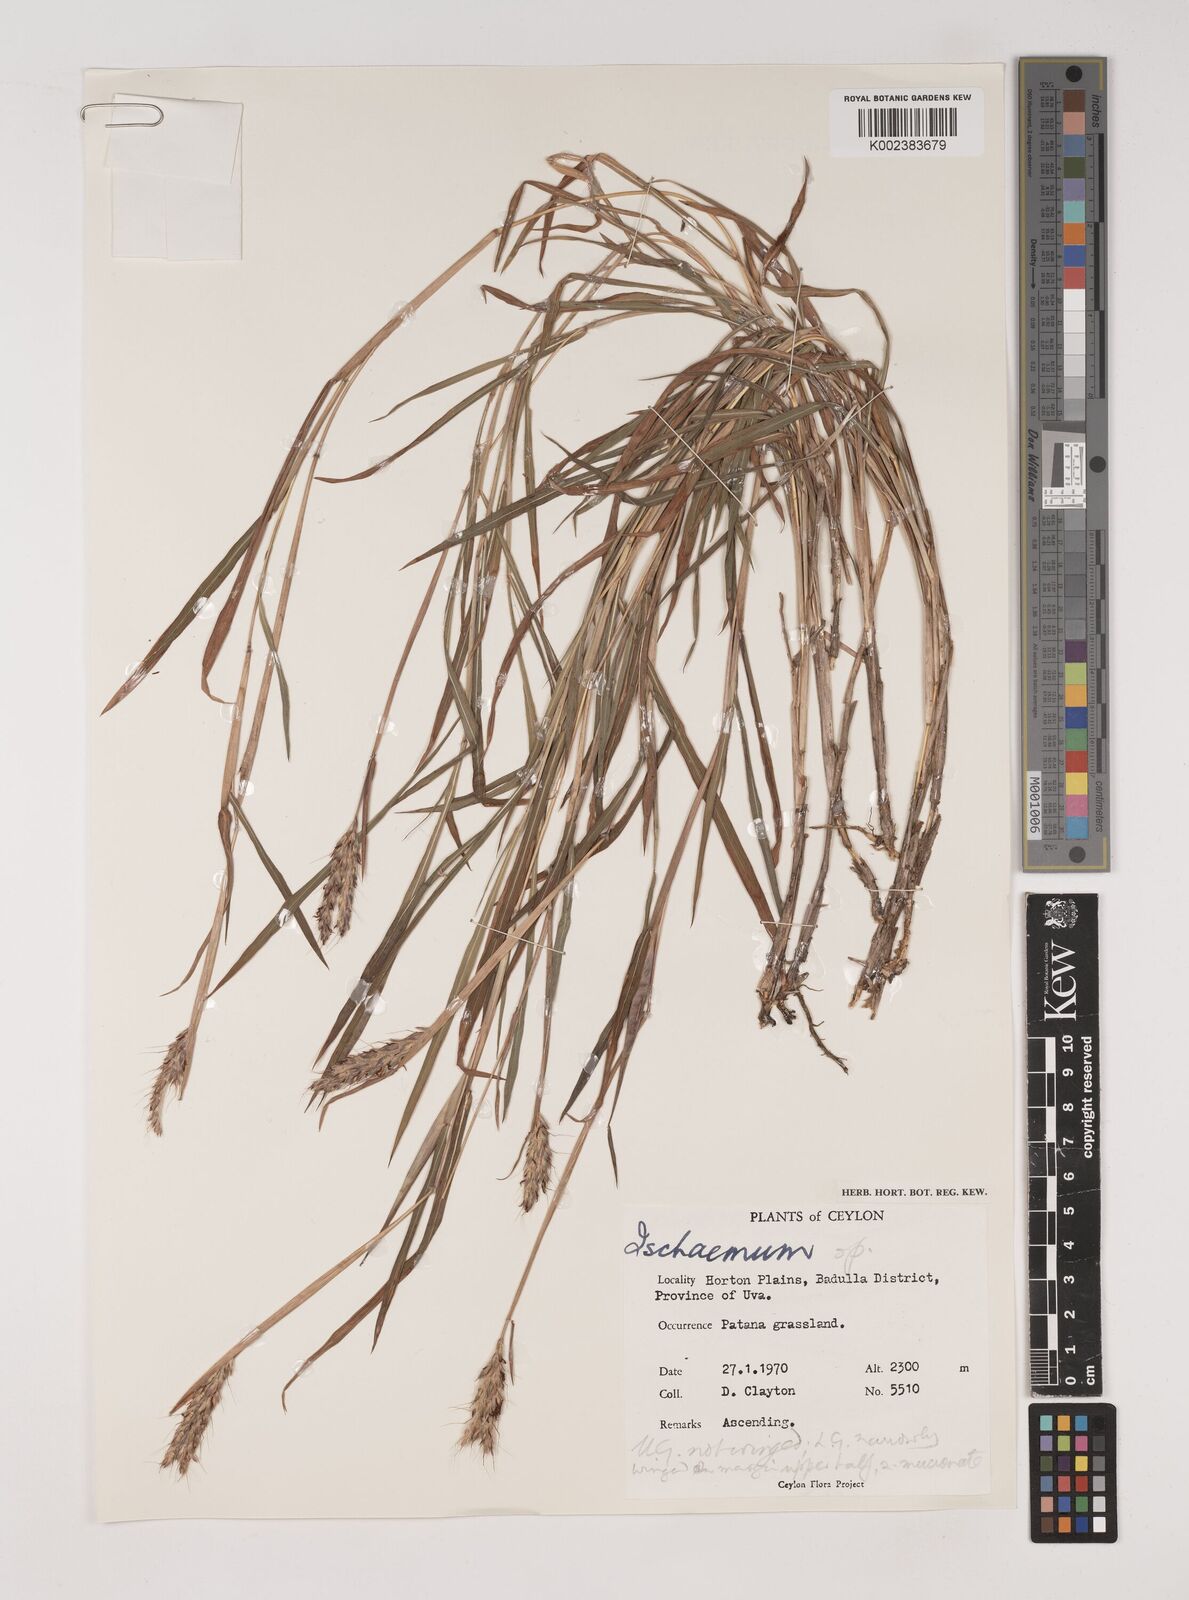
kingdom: Plantae
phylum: Tracheophyta
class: Liliopsida
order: Poales
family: Poaceae
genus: Ischaemum
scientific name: Ischaemum
